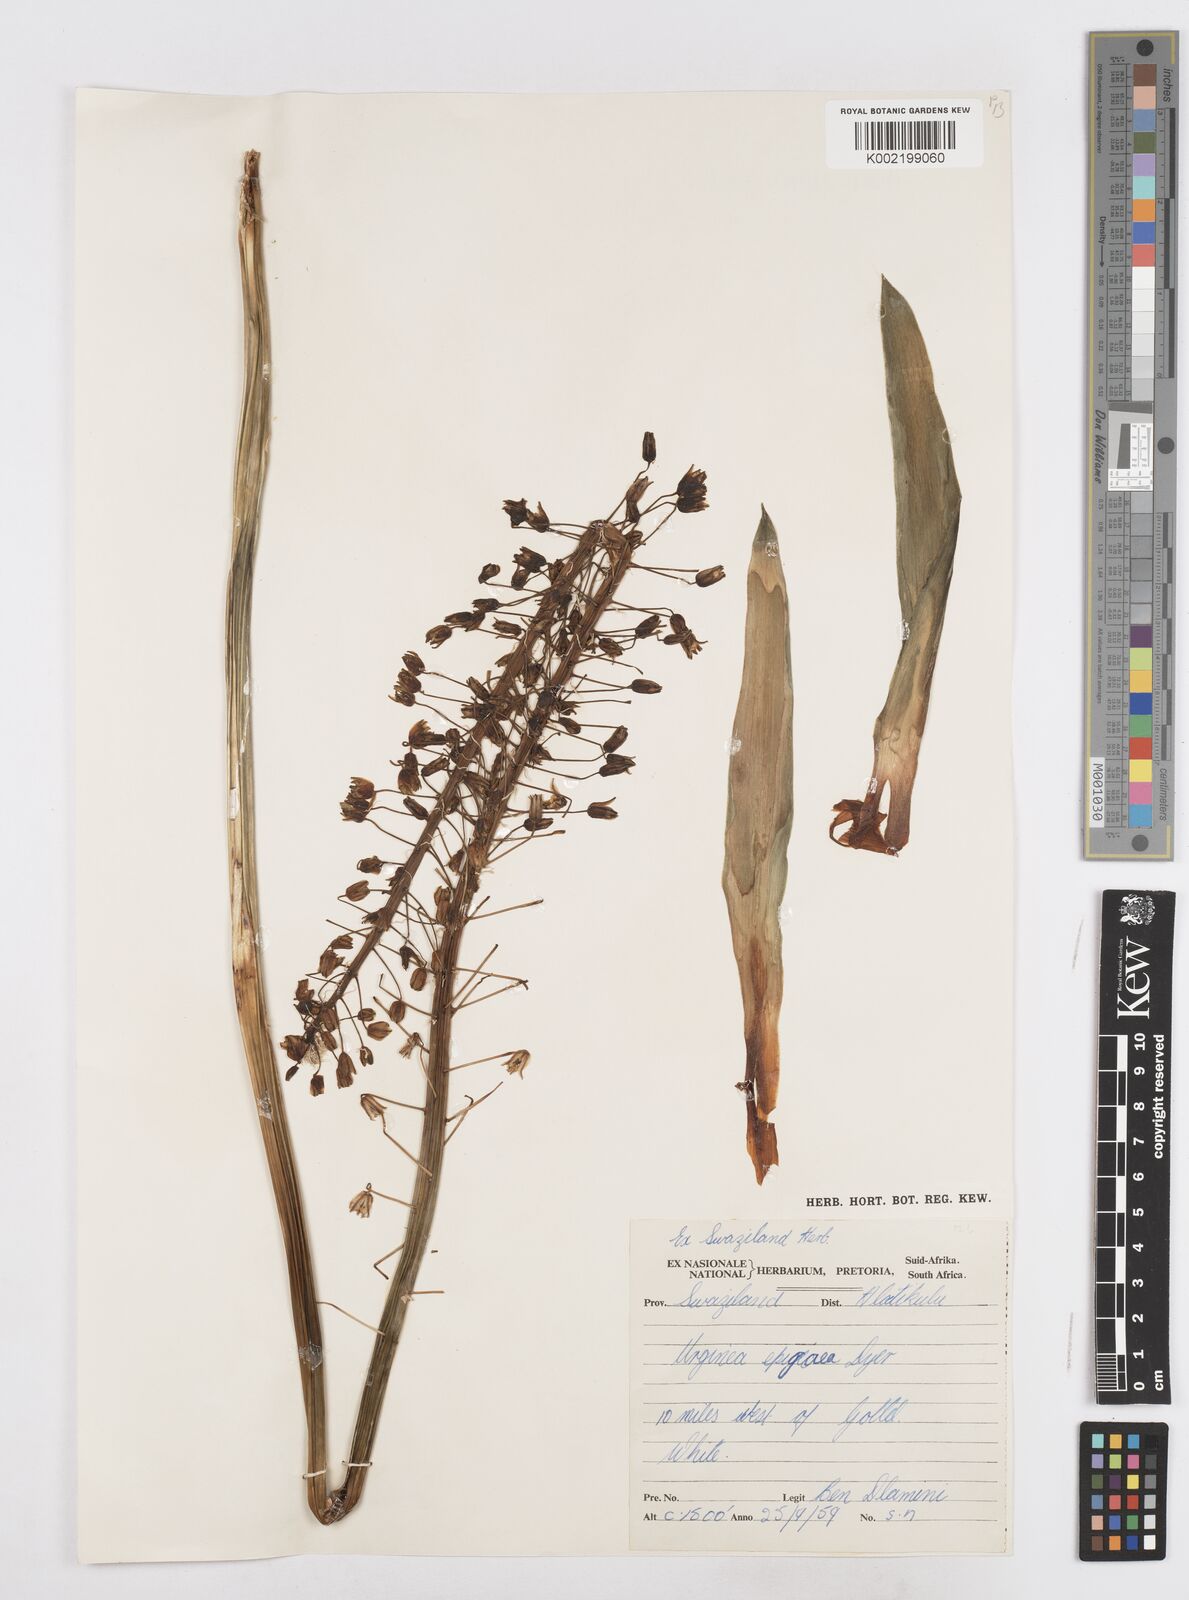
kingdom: Plantae
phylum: Tracheophyta
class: Liliopsida
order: Asparagales
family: Asparagaceae
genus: Drimia
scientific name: Drimia
